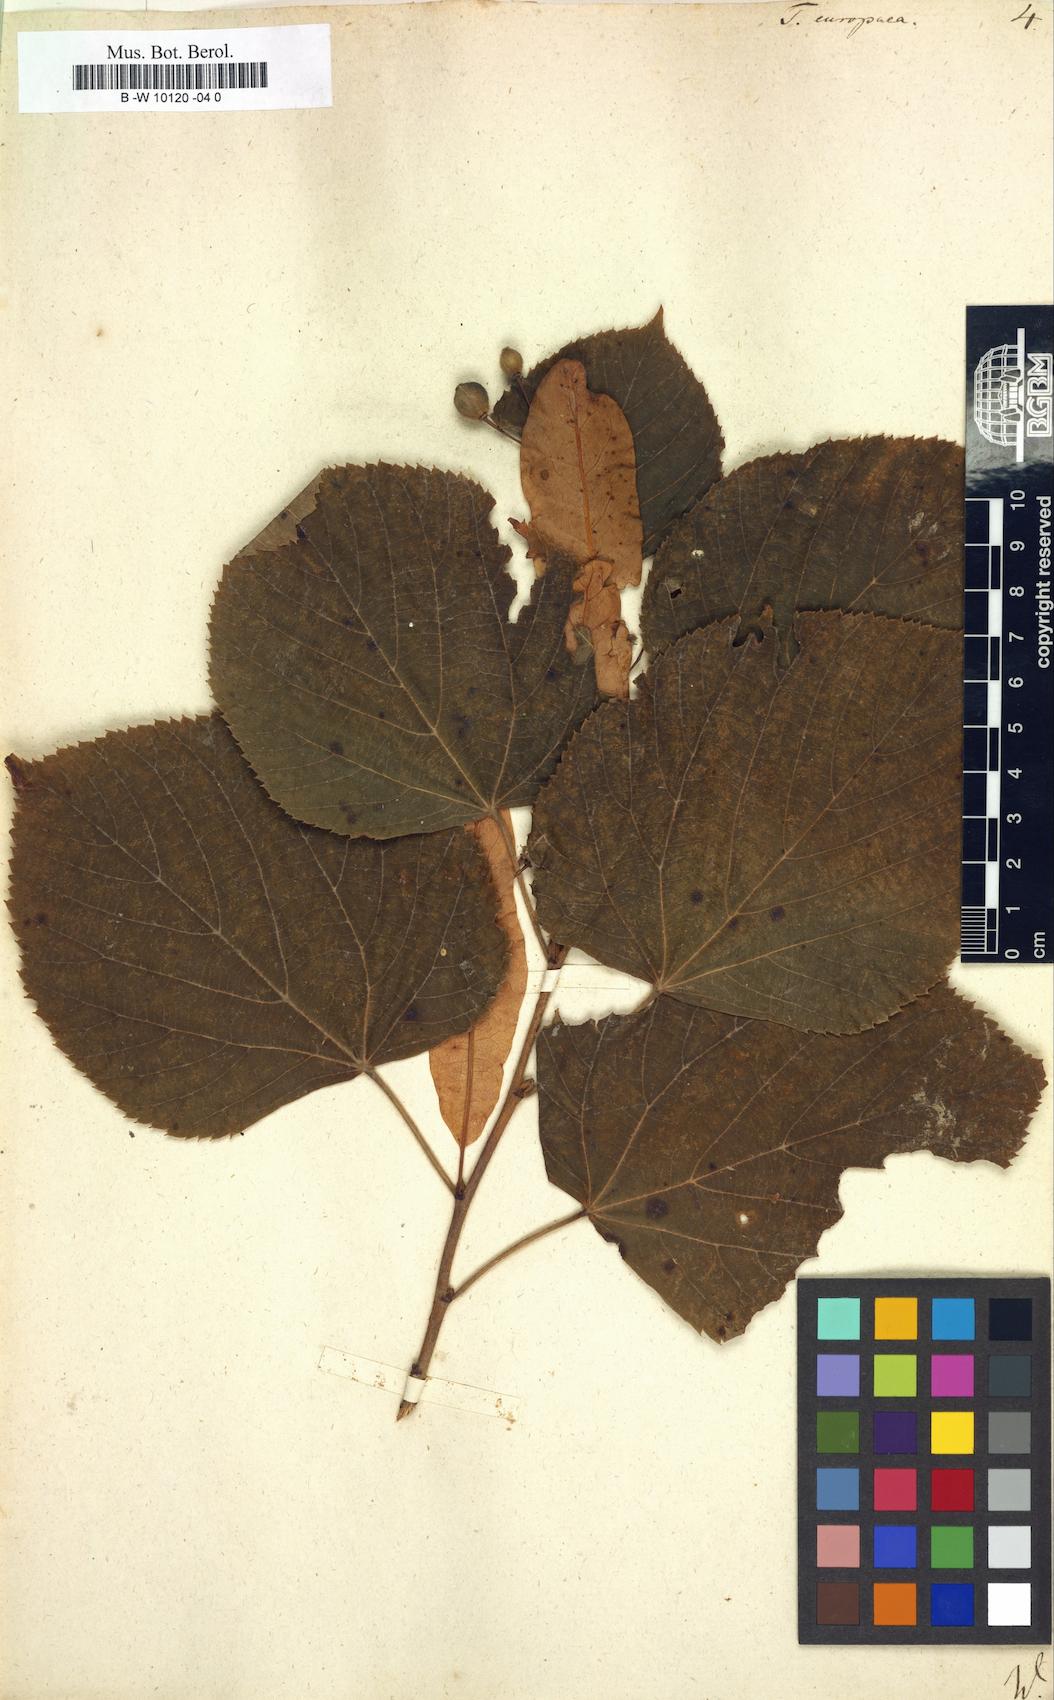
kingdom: Plantae
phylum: Tracheophyta
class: Magnoliopsida
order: Malvales
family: Malvaceae
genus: Tilia
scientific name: Tilia europaea
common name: European linden
